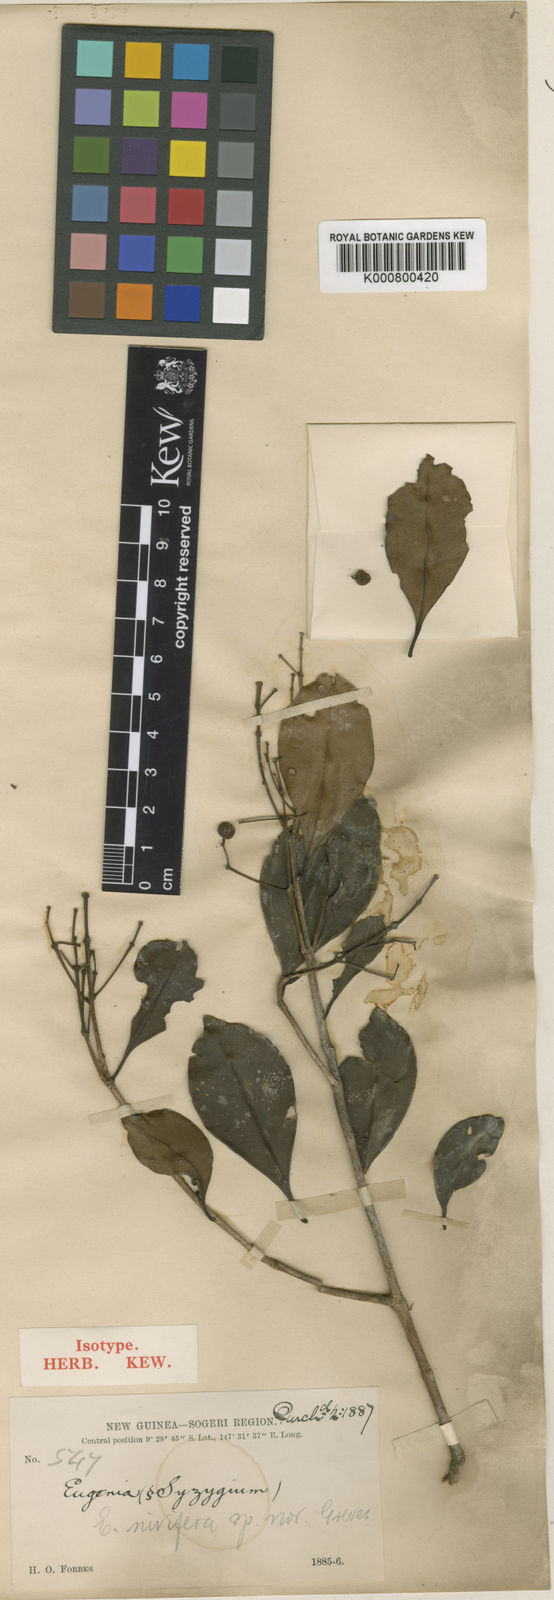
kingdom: Plantae
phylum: Tracheophyta
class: Magnoliopsida
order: Myrtales
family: Myrtaceae
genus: Syzygium
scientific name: Syzygium
